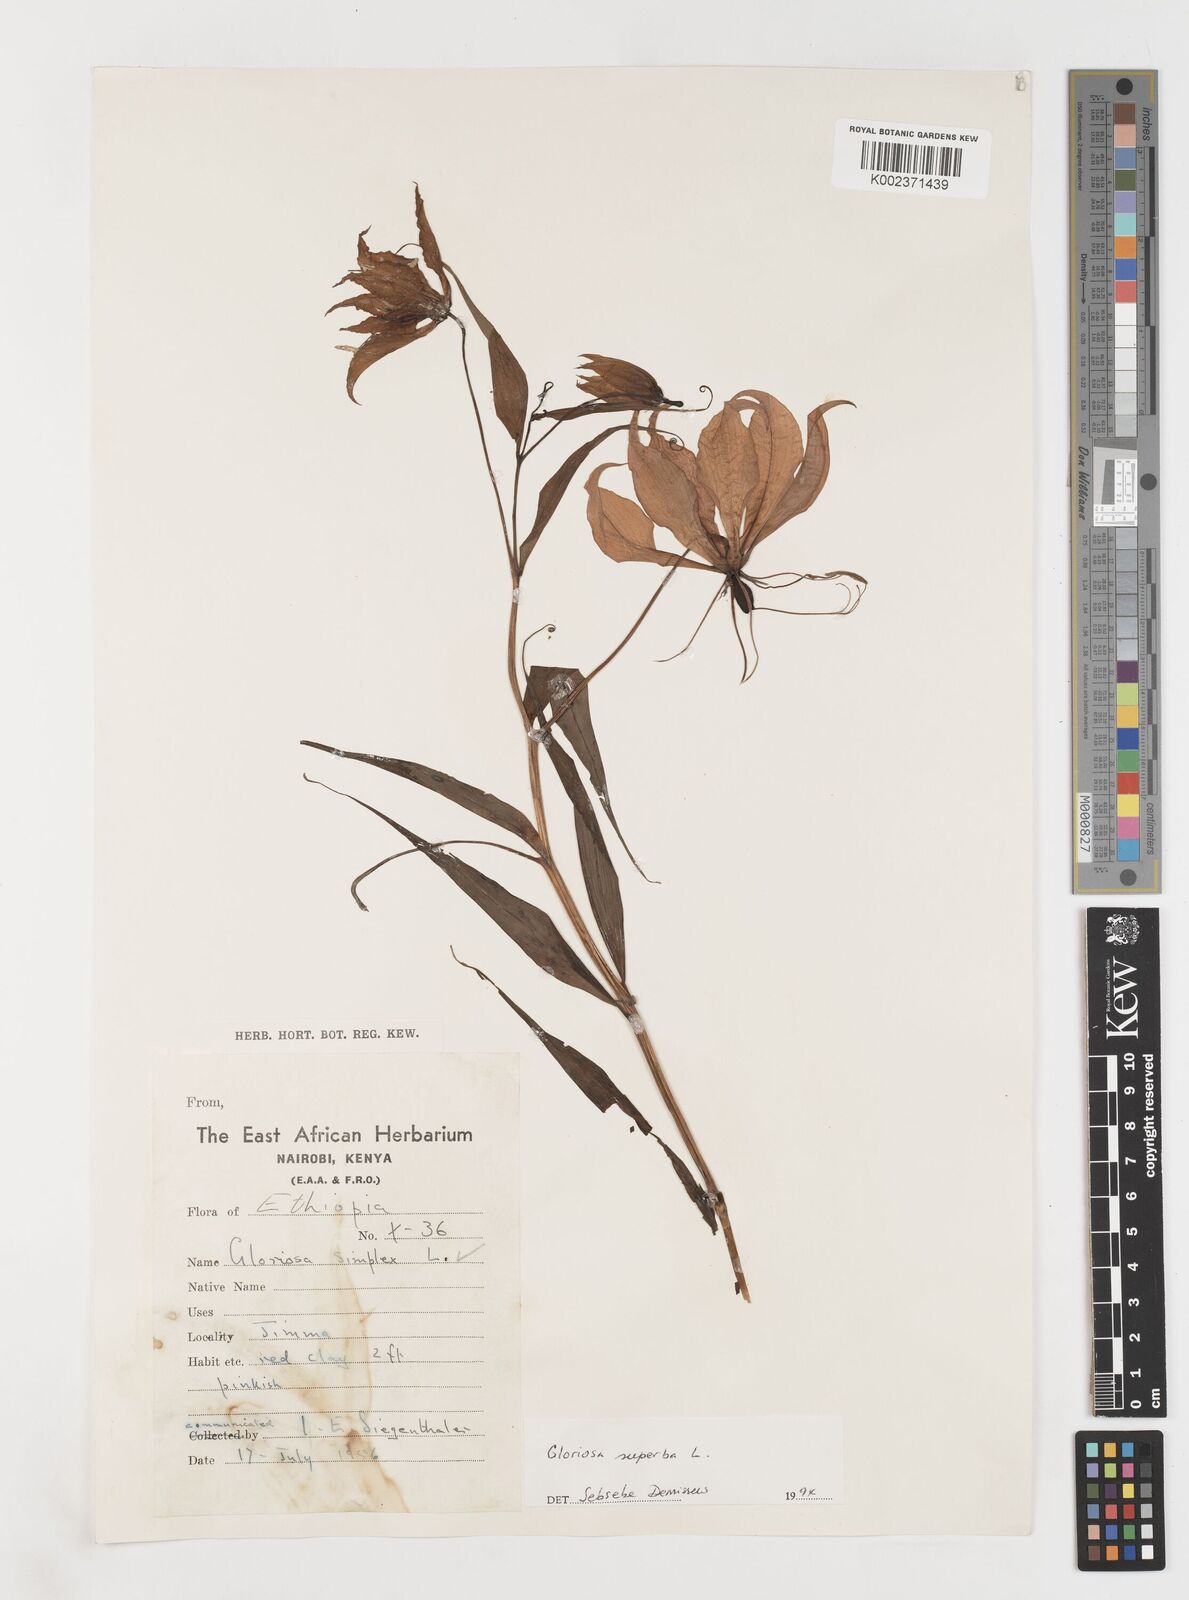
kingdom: Plantae
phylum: Tracheophyta
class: Liliopsida
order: Liliales
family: Colchicaceae
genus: Gloriosa
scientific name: Gloriosa simplex
